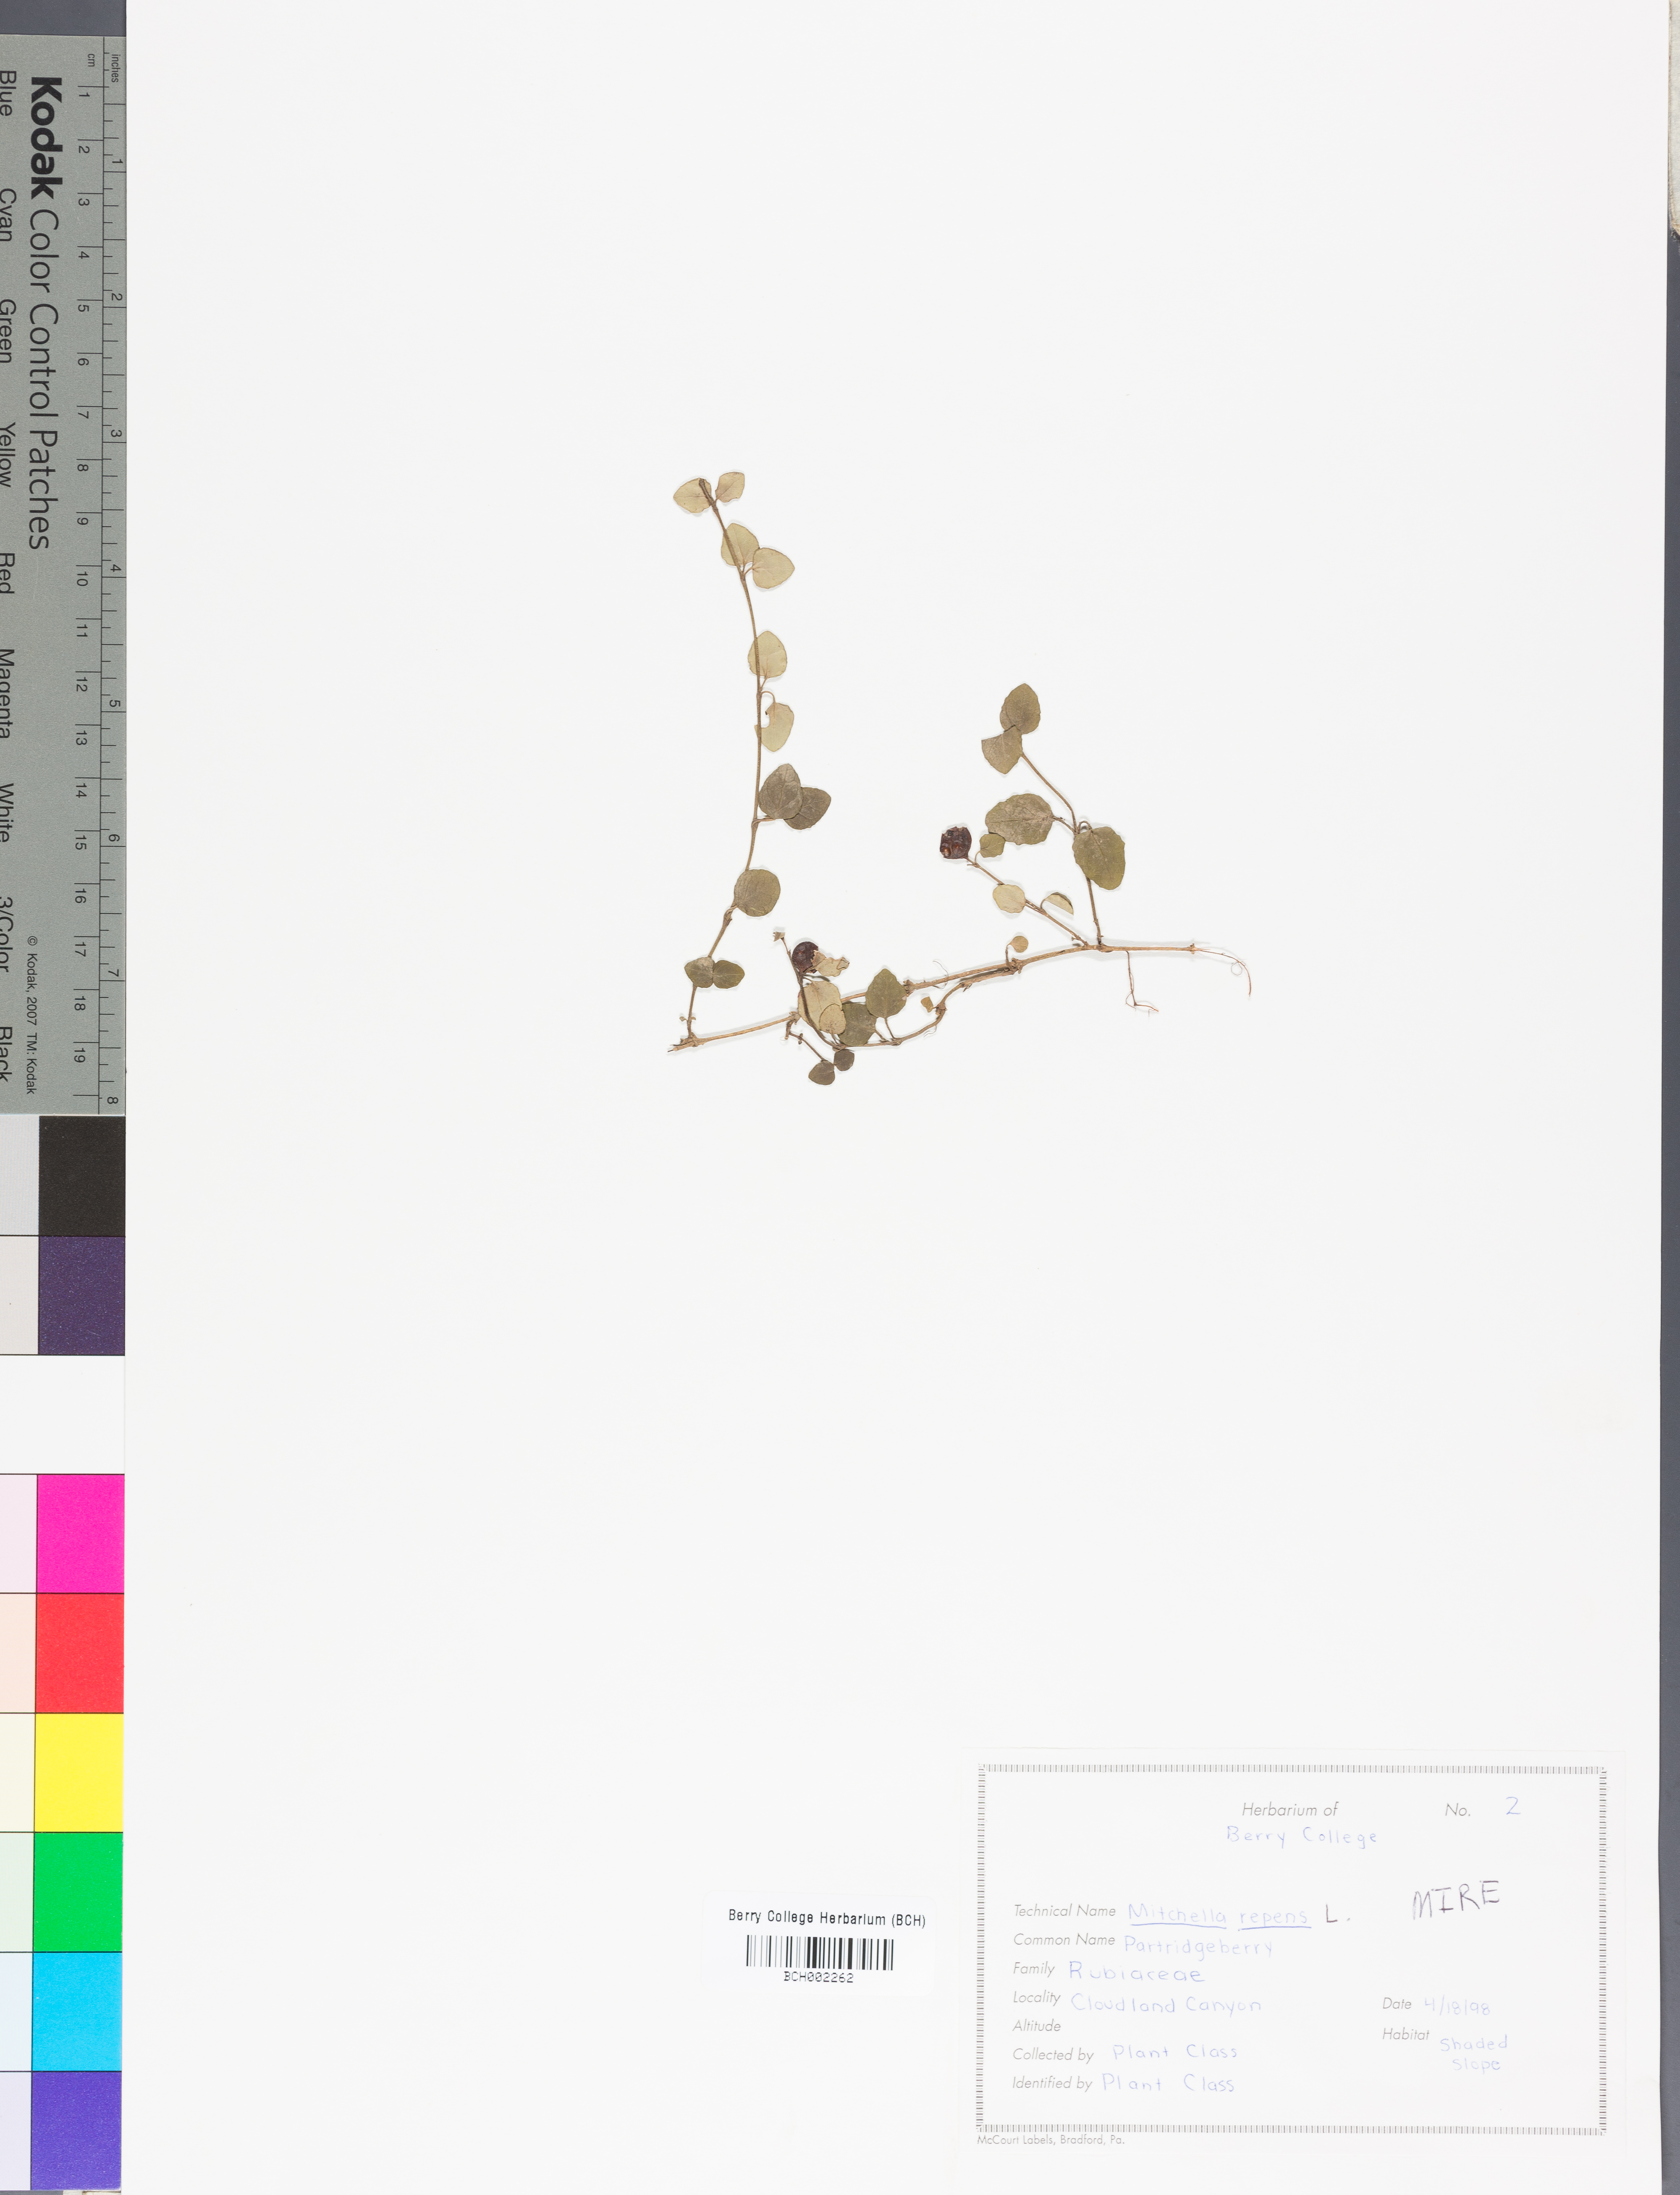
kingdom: Plantae
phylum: Tracheophyta
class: Magnoliopsida
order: Gentianales
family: Rubiaceae
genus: Mitchella
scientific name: Mitchella repens
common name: Partridge-berry
